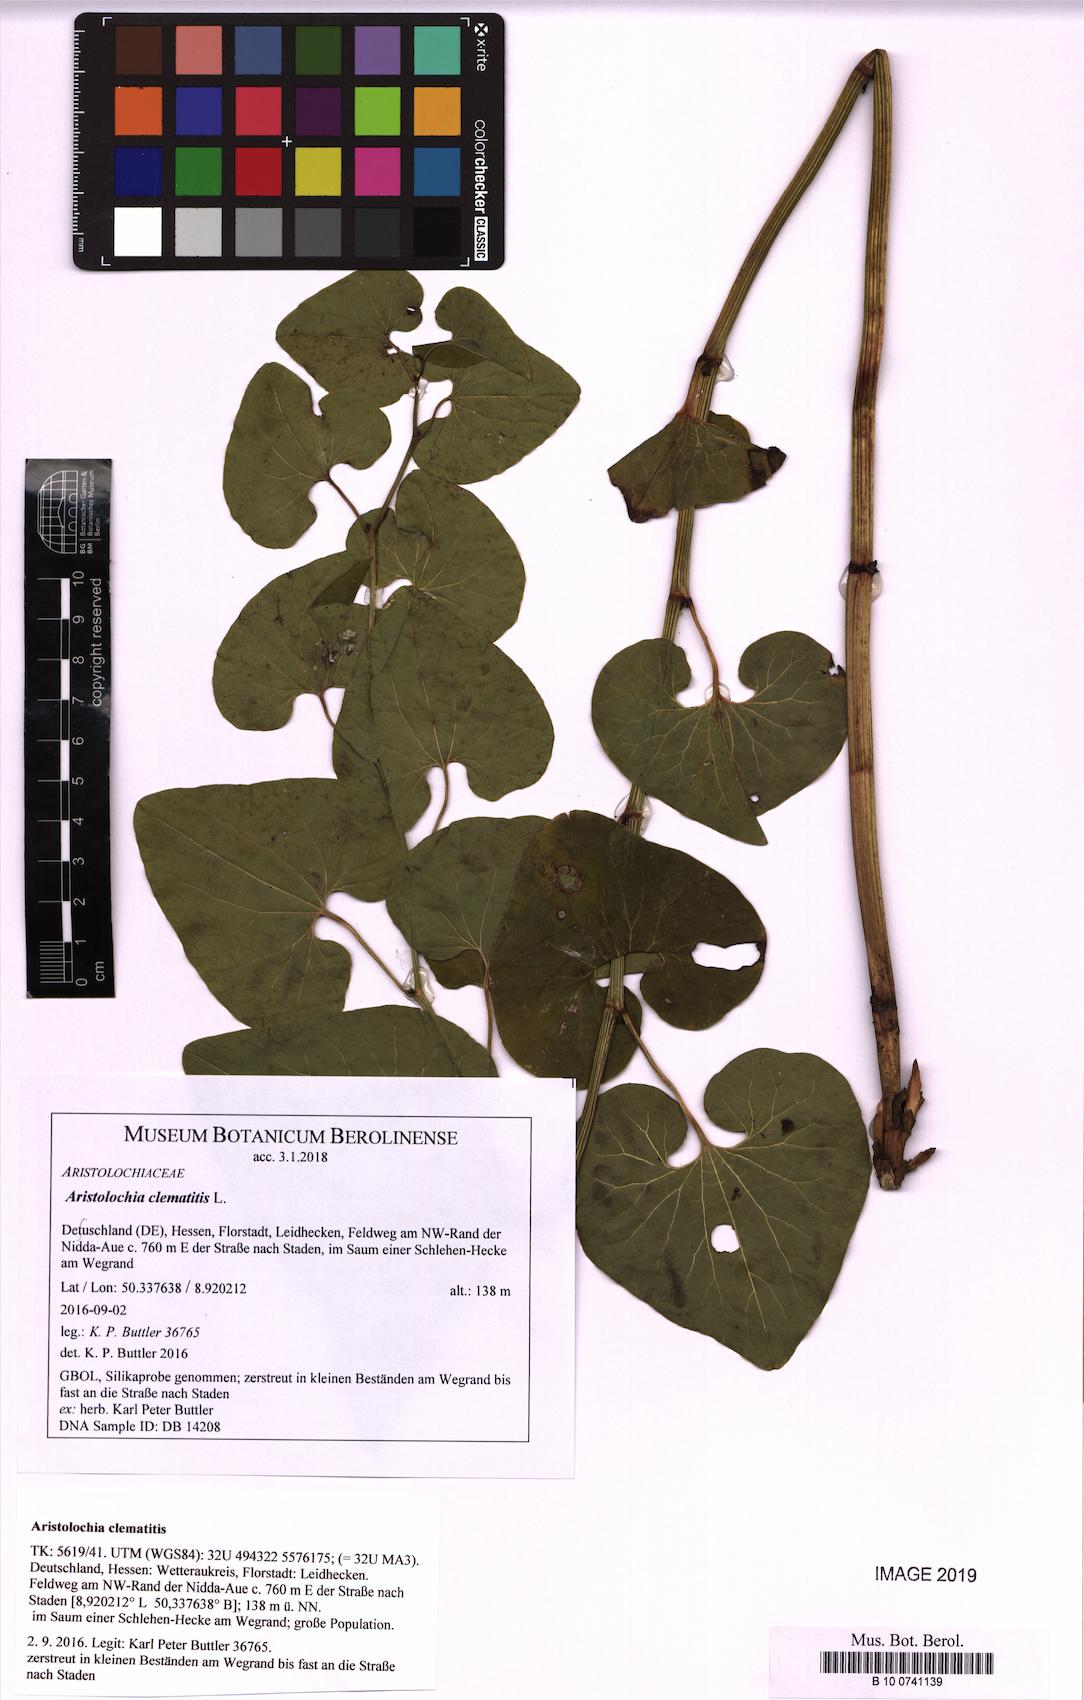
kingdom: Plantae
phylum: Tracheophyta
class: Magnoliopsida
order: Piperales
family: Aristolochiaceae
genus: Aristolochia
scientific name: Aristolochia clematitis
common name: Birthwort
